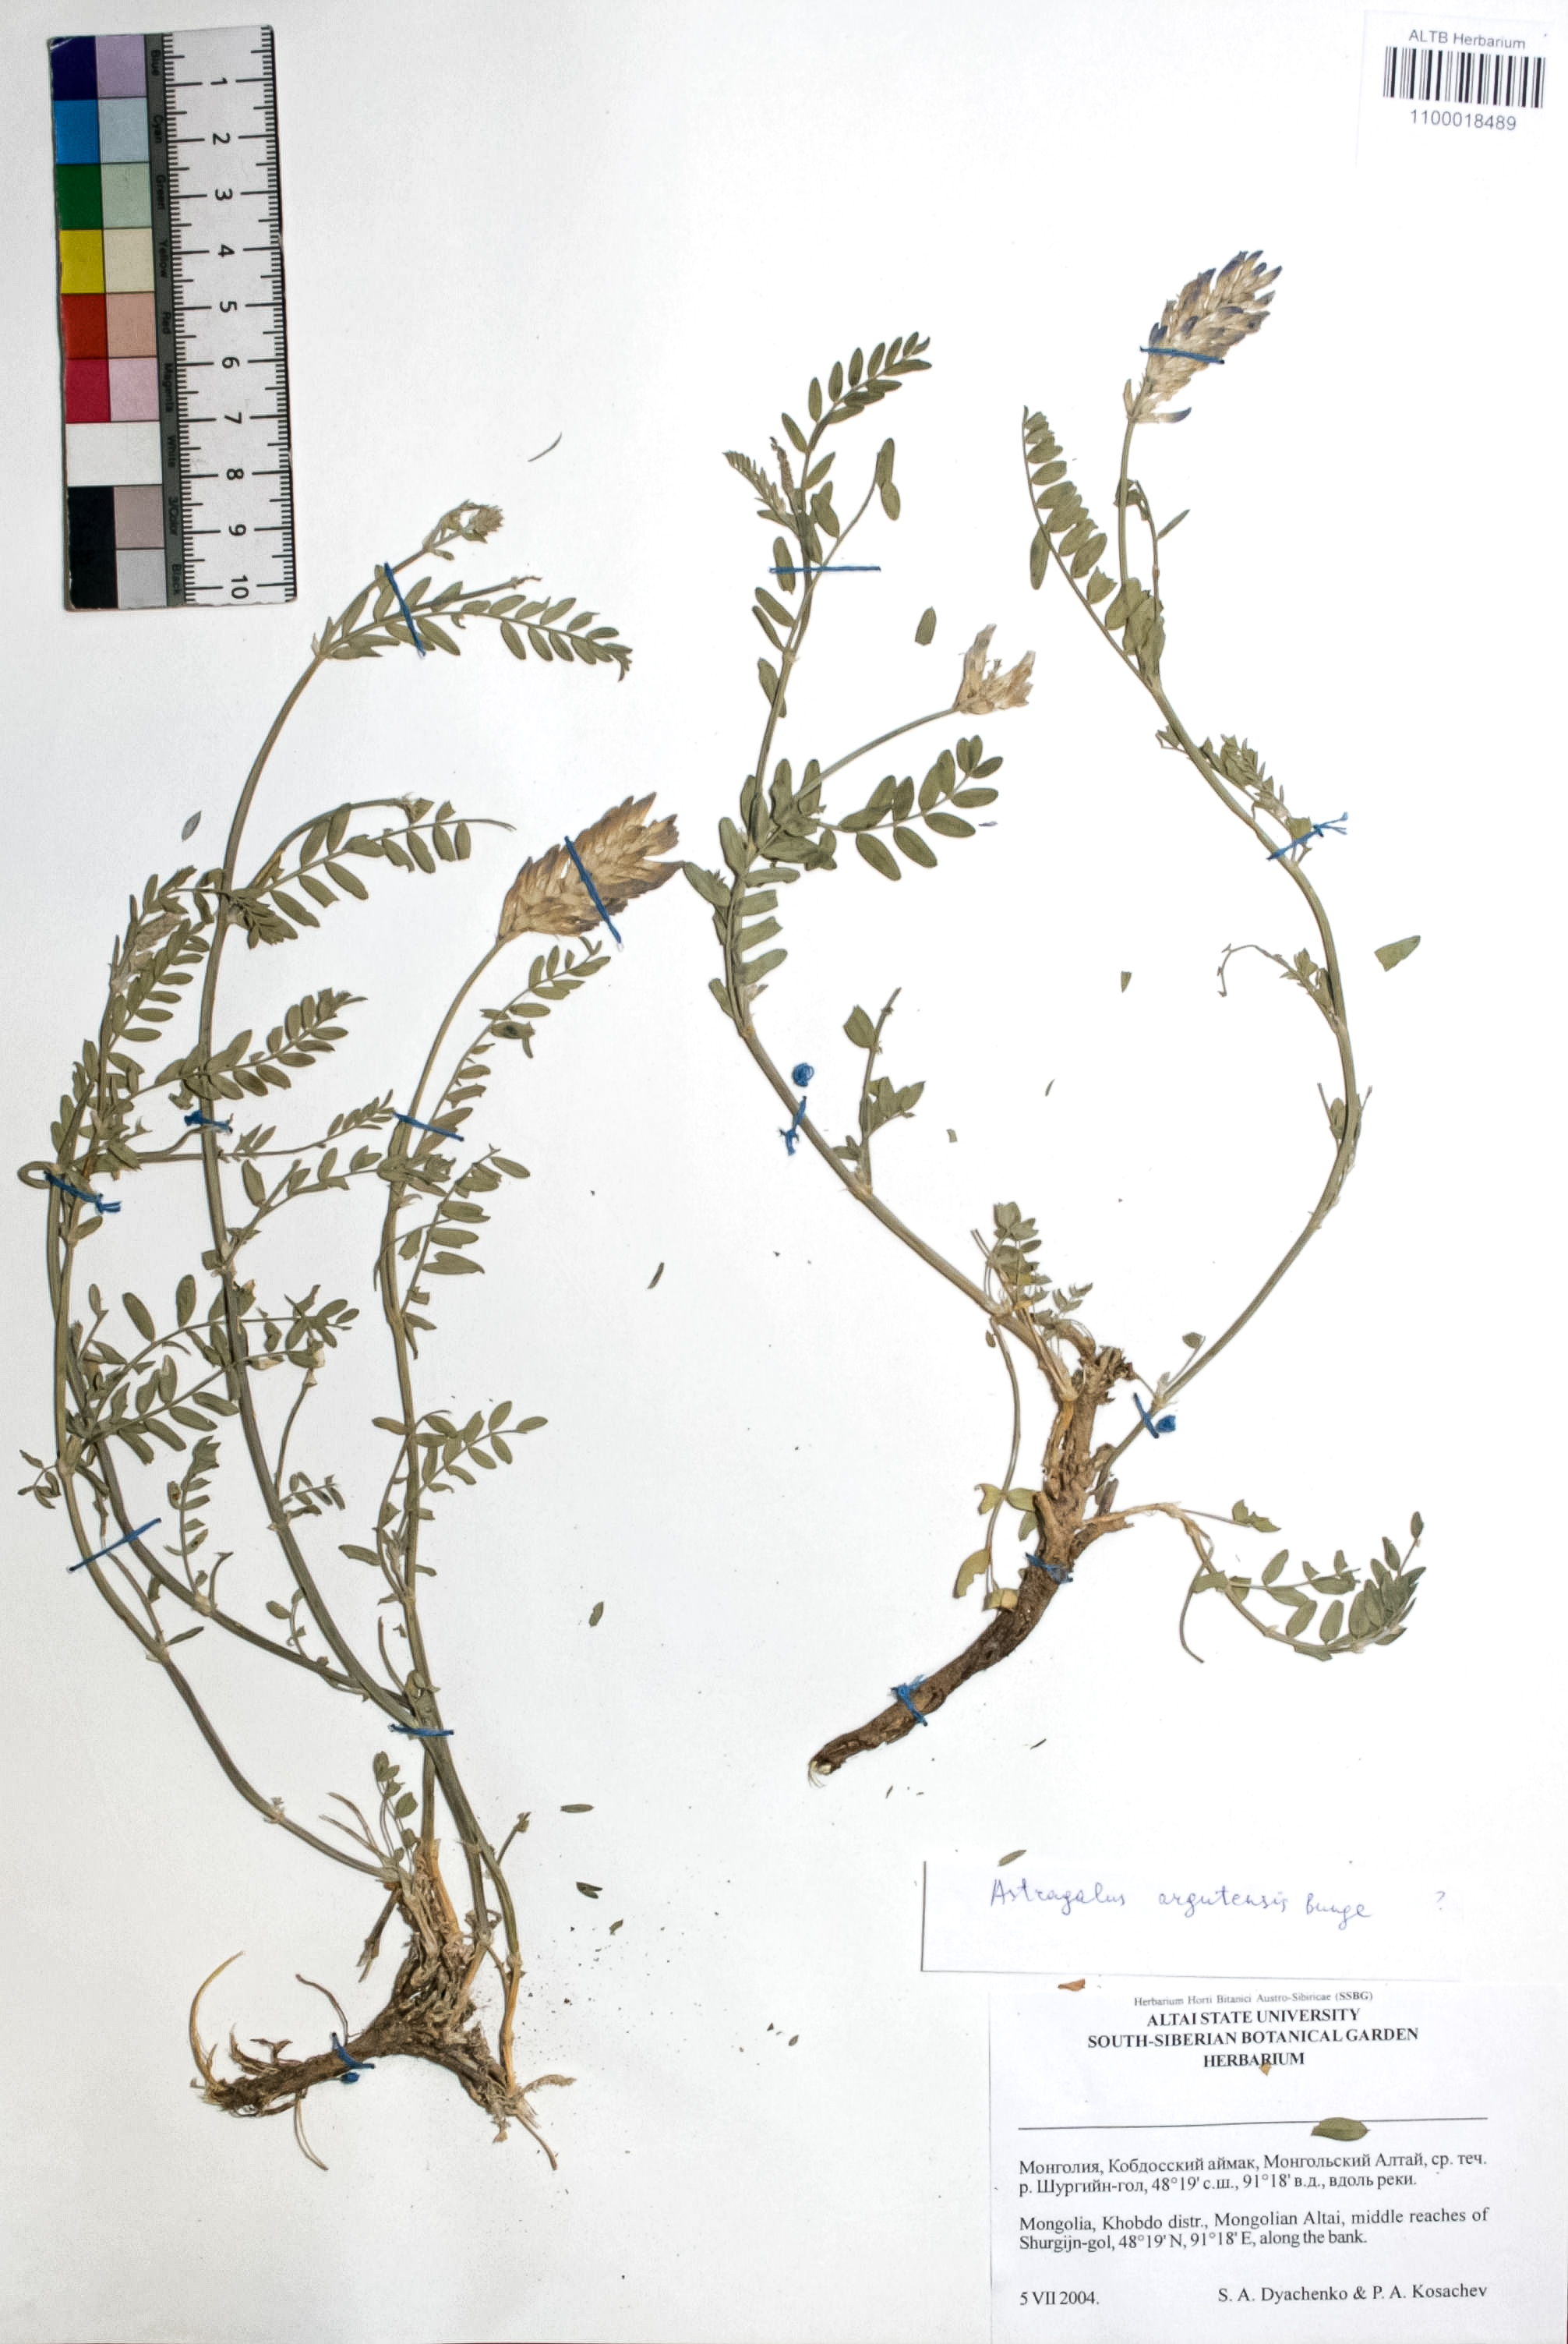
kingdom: Plantae
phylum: Tracheophyta
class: Magnoliopsida
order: Fabales
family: Fabaceae
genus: Astragalus
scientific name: Astragalus argutensis
